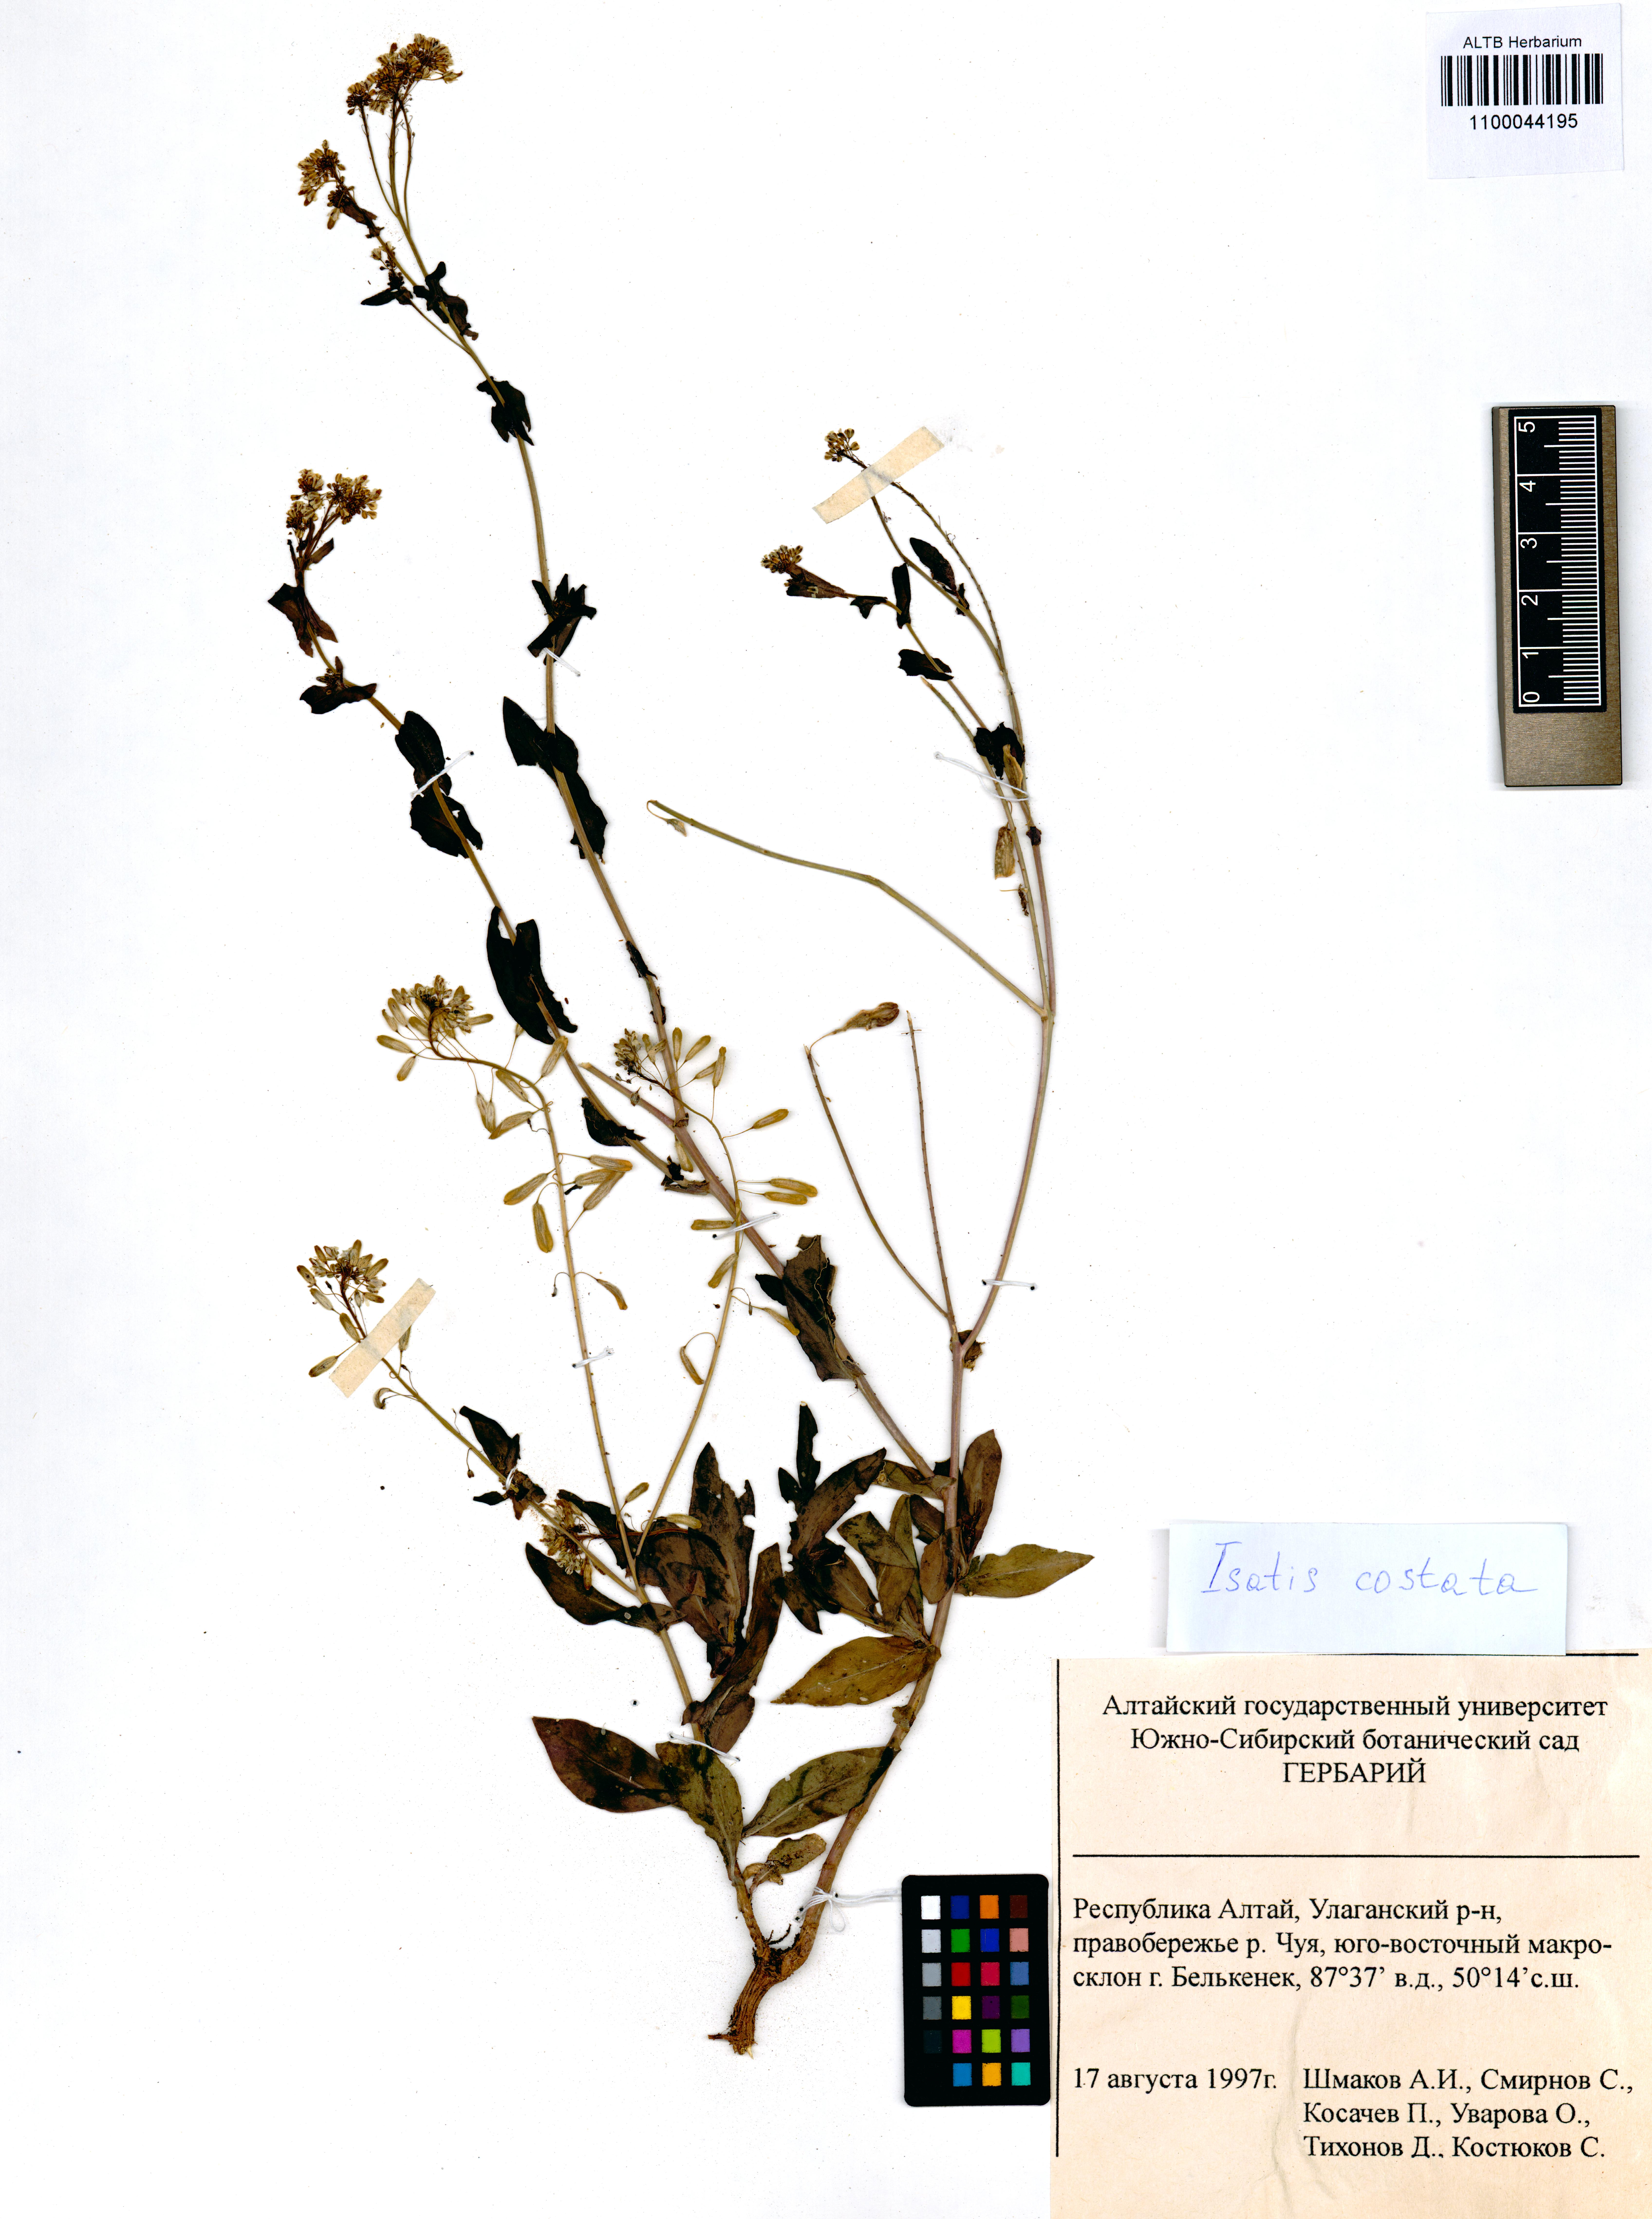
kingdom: Plantae
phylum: Tracheophyta
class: Magnoliopsida
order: Brassicales
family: Brassicaceae
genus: Isatis
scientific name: Isatis costata
